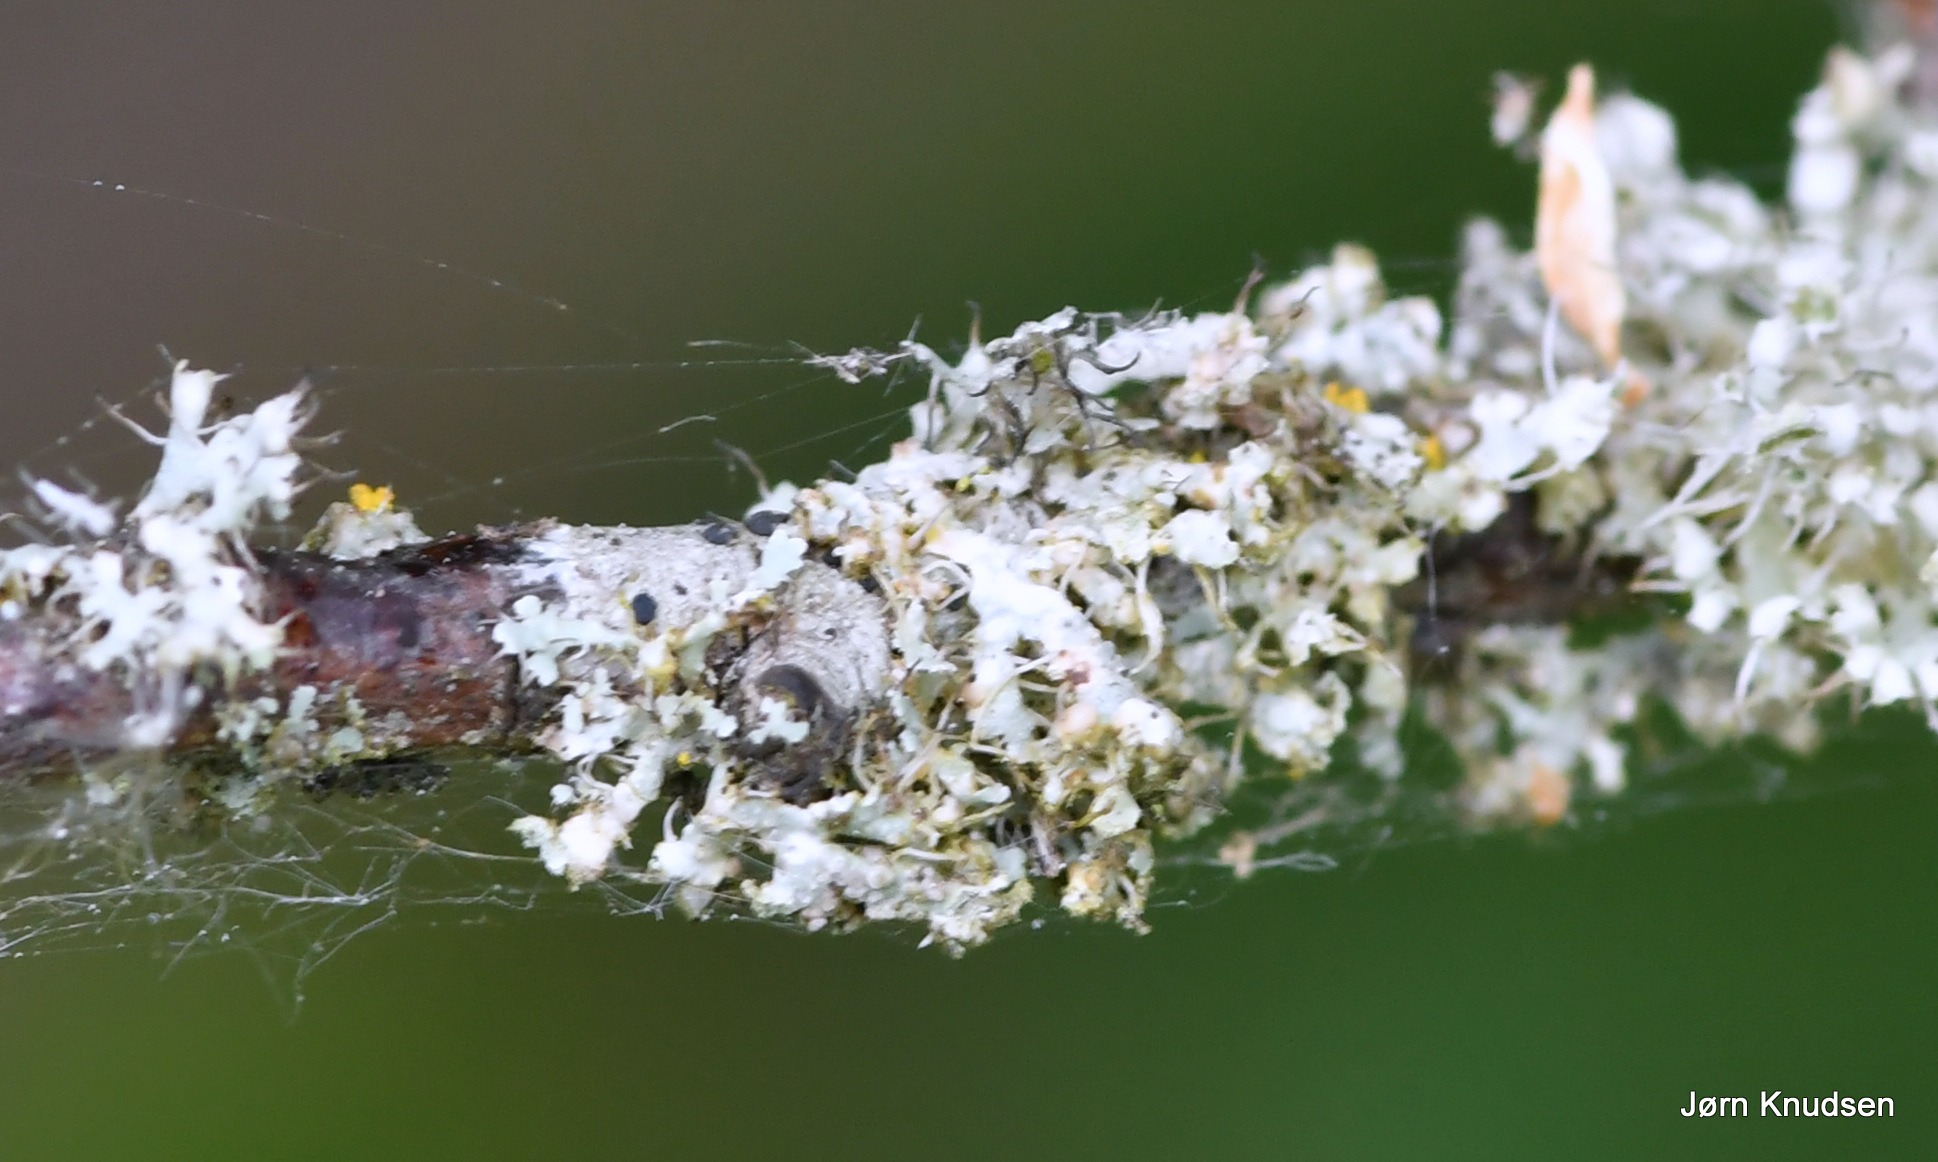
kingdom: Fungi
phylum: Ascomycota
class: Lecanoromycetes
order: Caliciales
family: Physciaceae
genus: Physcia
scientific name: Physcia adscendens
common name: Hætte-rosetlav
